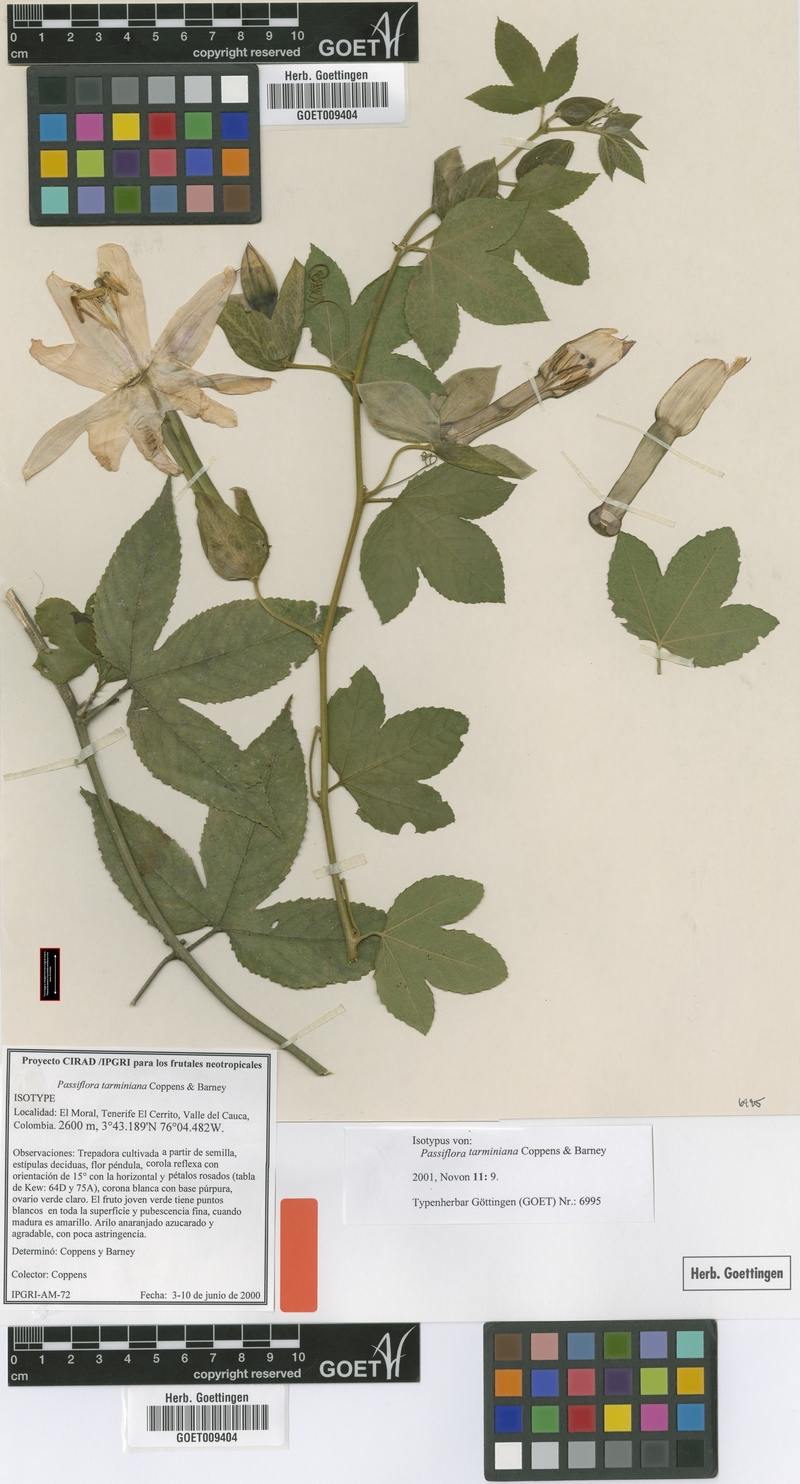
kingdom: Plantae
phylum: Tracheophyta
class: Magnoliopsida
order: Malpighiales
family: Passifloraceae
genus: Passiflora
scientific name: Passiflora tarminiana
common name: Banana poka
